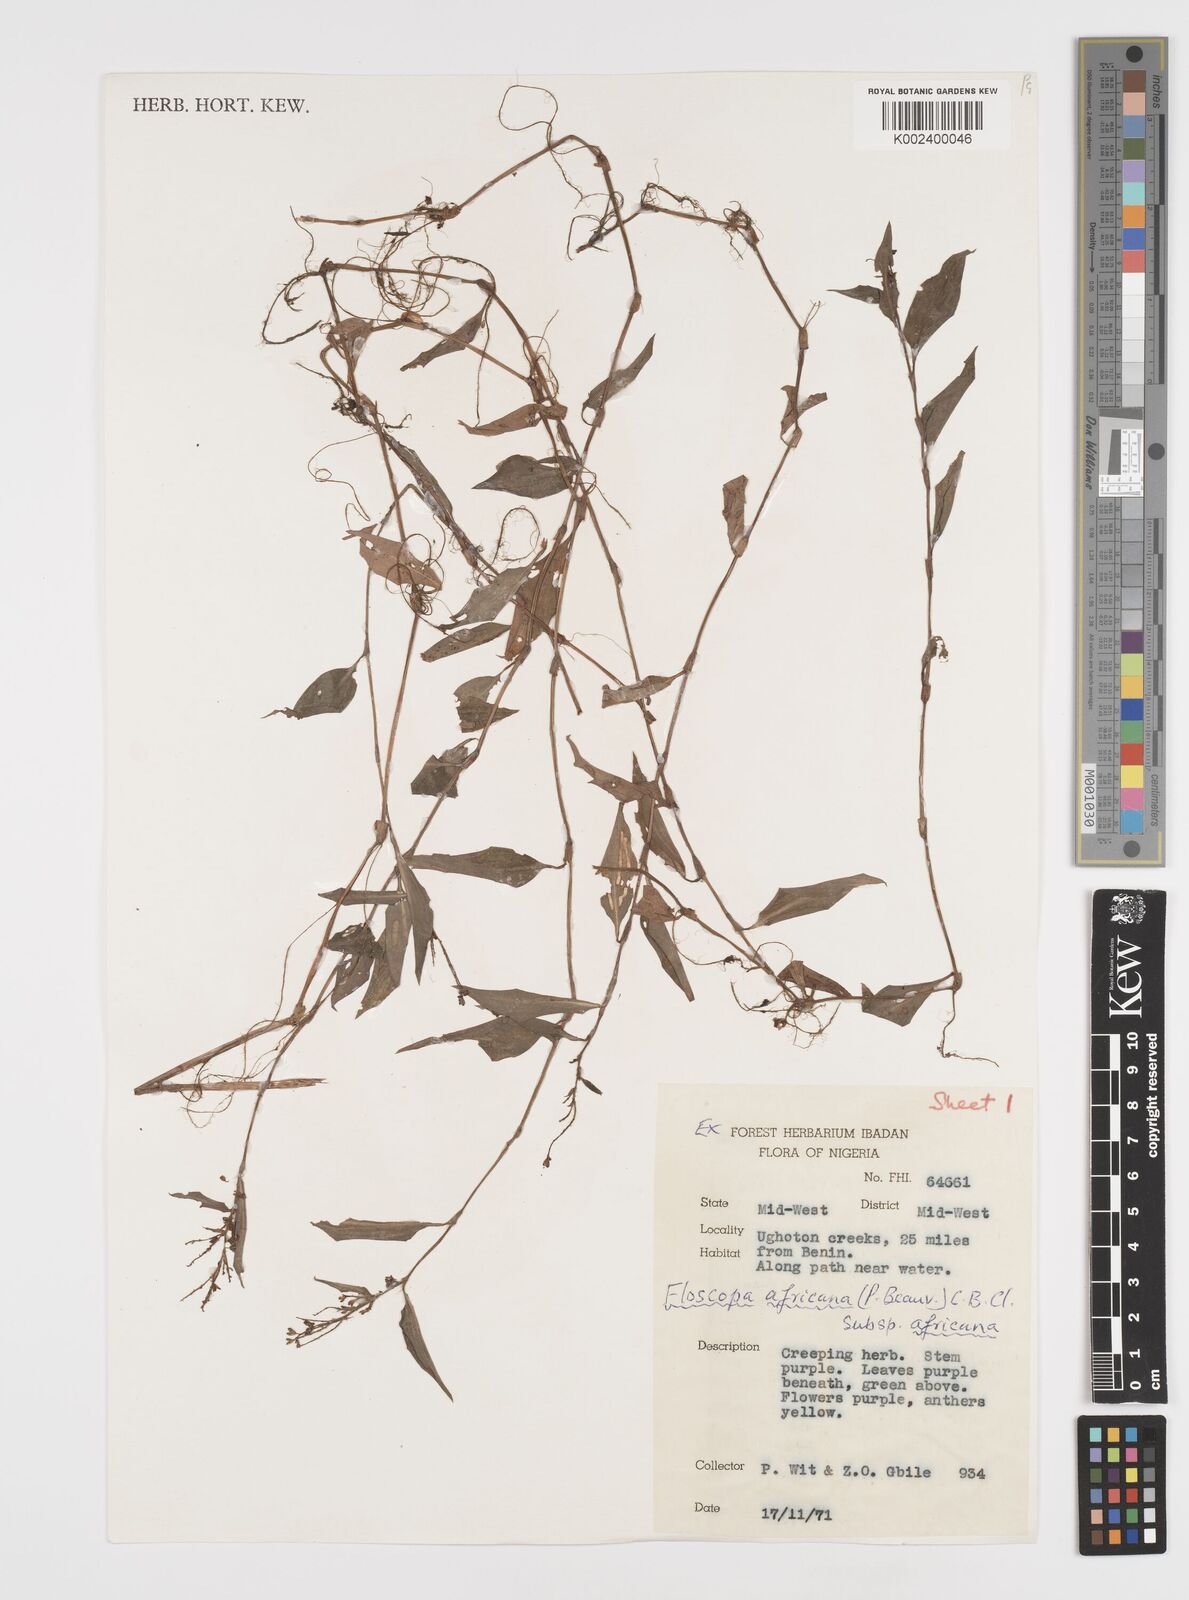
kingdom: Plantae
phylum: Tracheophyta
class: Liliopsida
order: Commelinales
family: Commelinaceae
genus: Floscopa
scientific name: Floscopa africana
